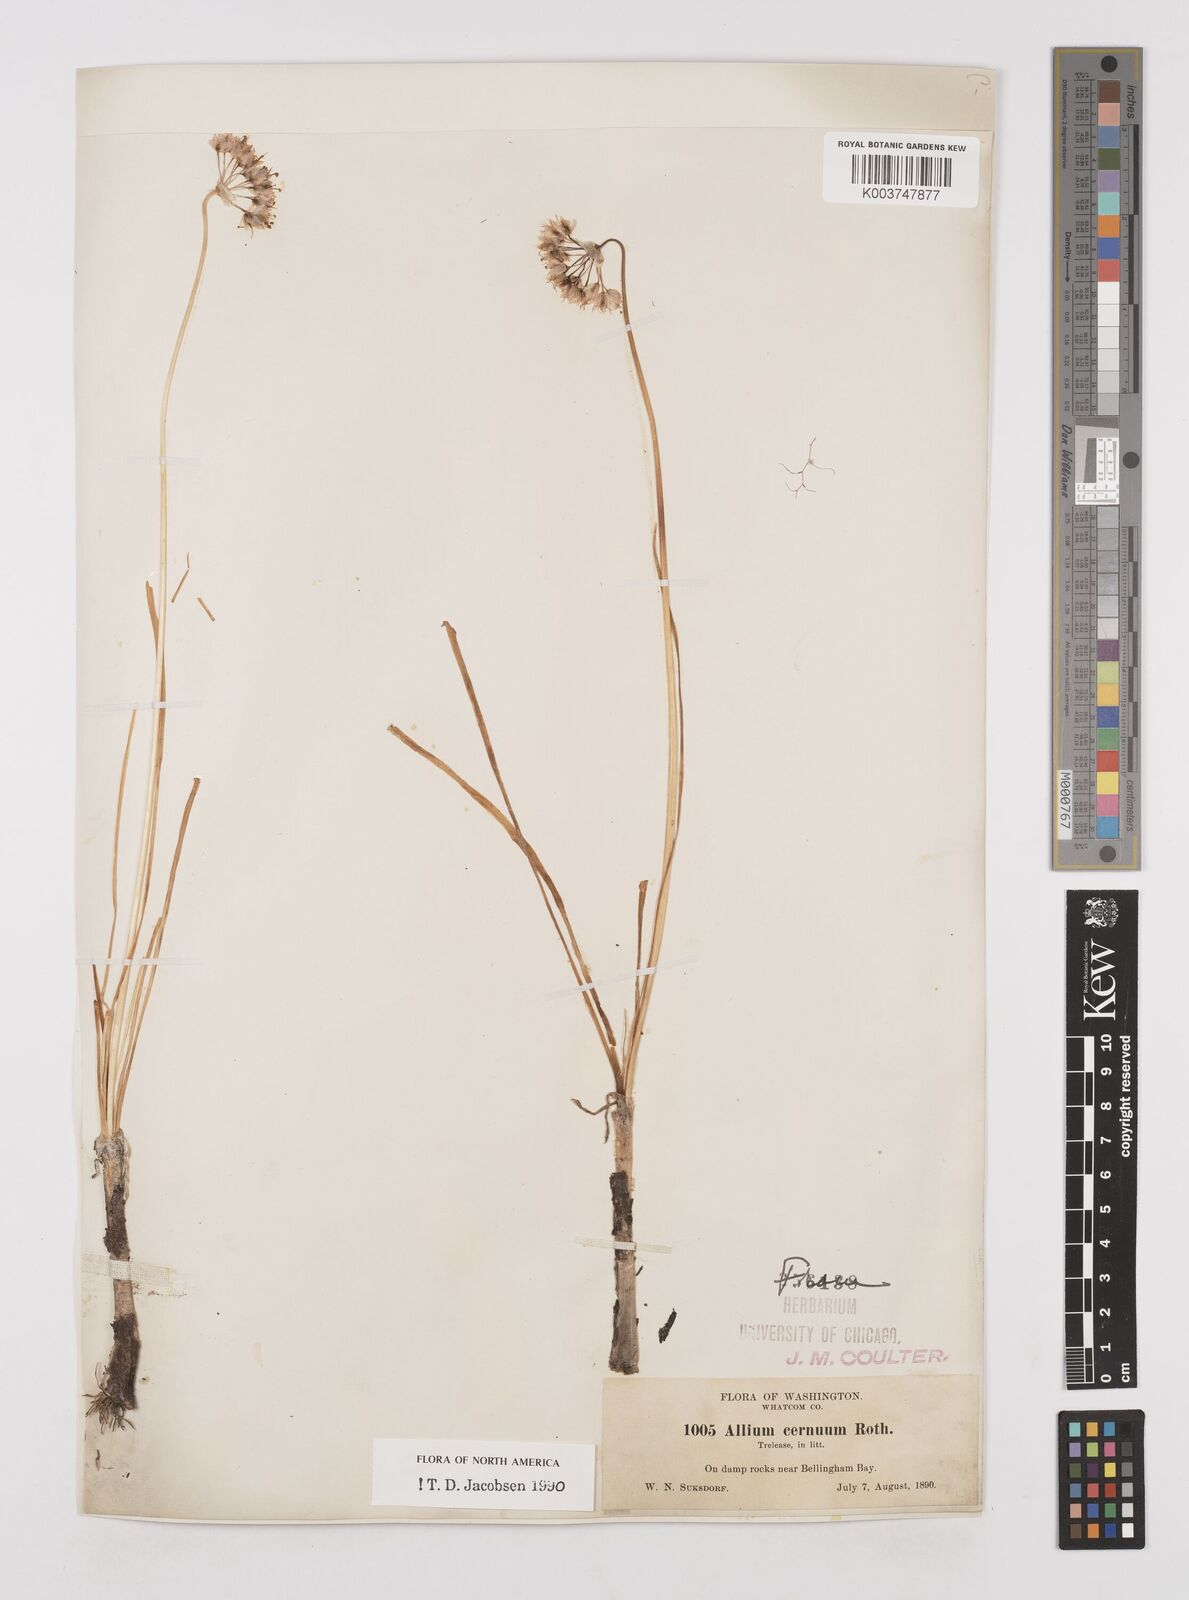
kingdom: Plantae
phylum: Tracheophyta
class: Liliopsida
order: Asparagales
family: Amaryllidaceae
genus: Allium
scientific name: Allium cernuum
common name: Nodding onion
